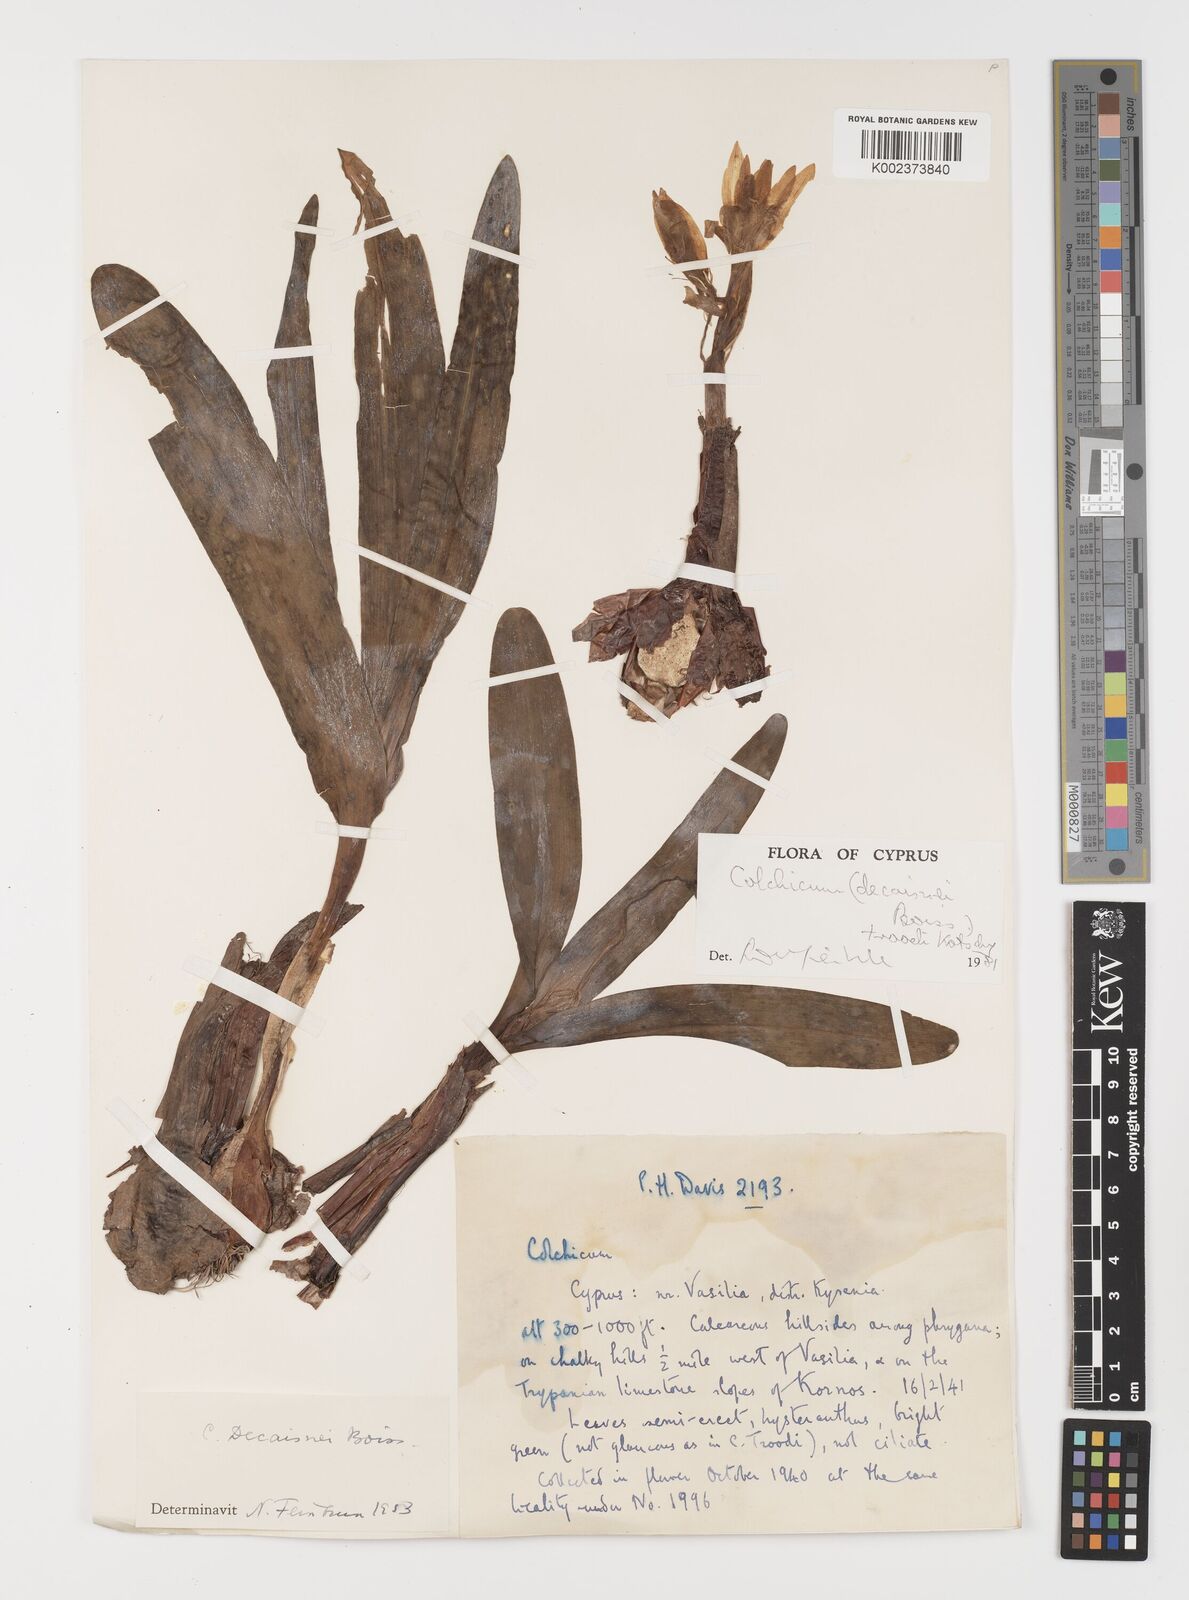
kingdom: Plantae
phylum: Tracheophyta
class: Liliopsida
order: Liliales
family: Colchicaceae
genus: Colchicum
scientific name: Colchicum troodi
